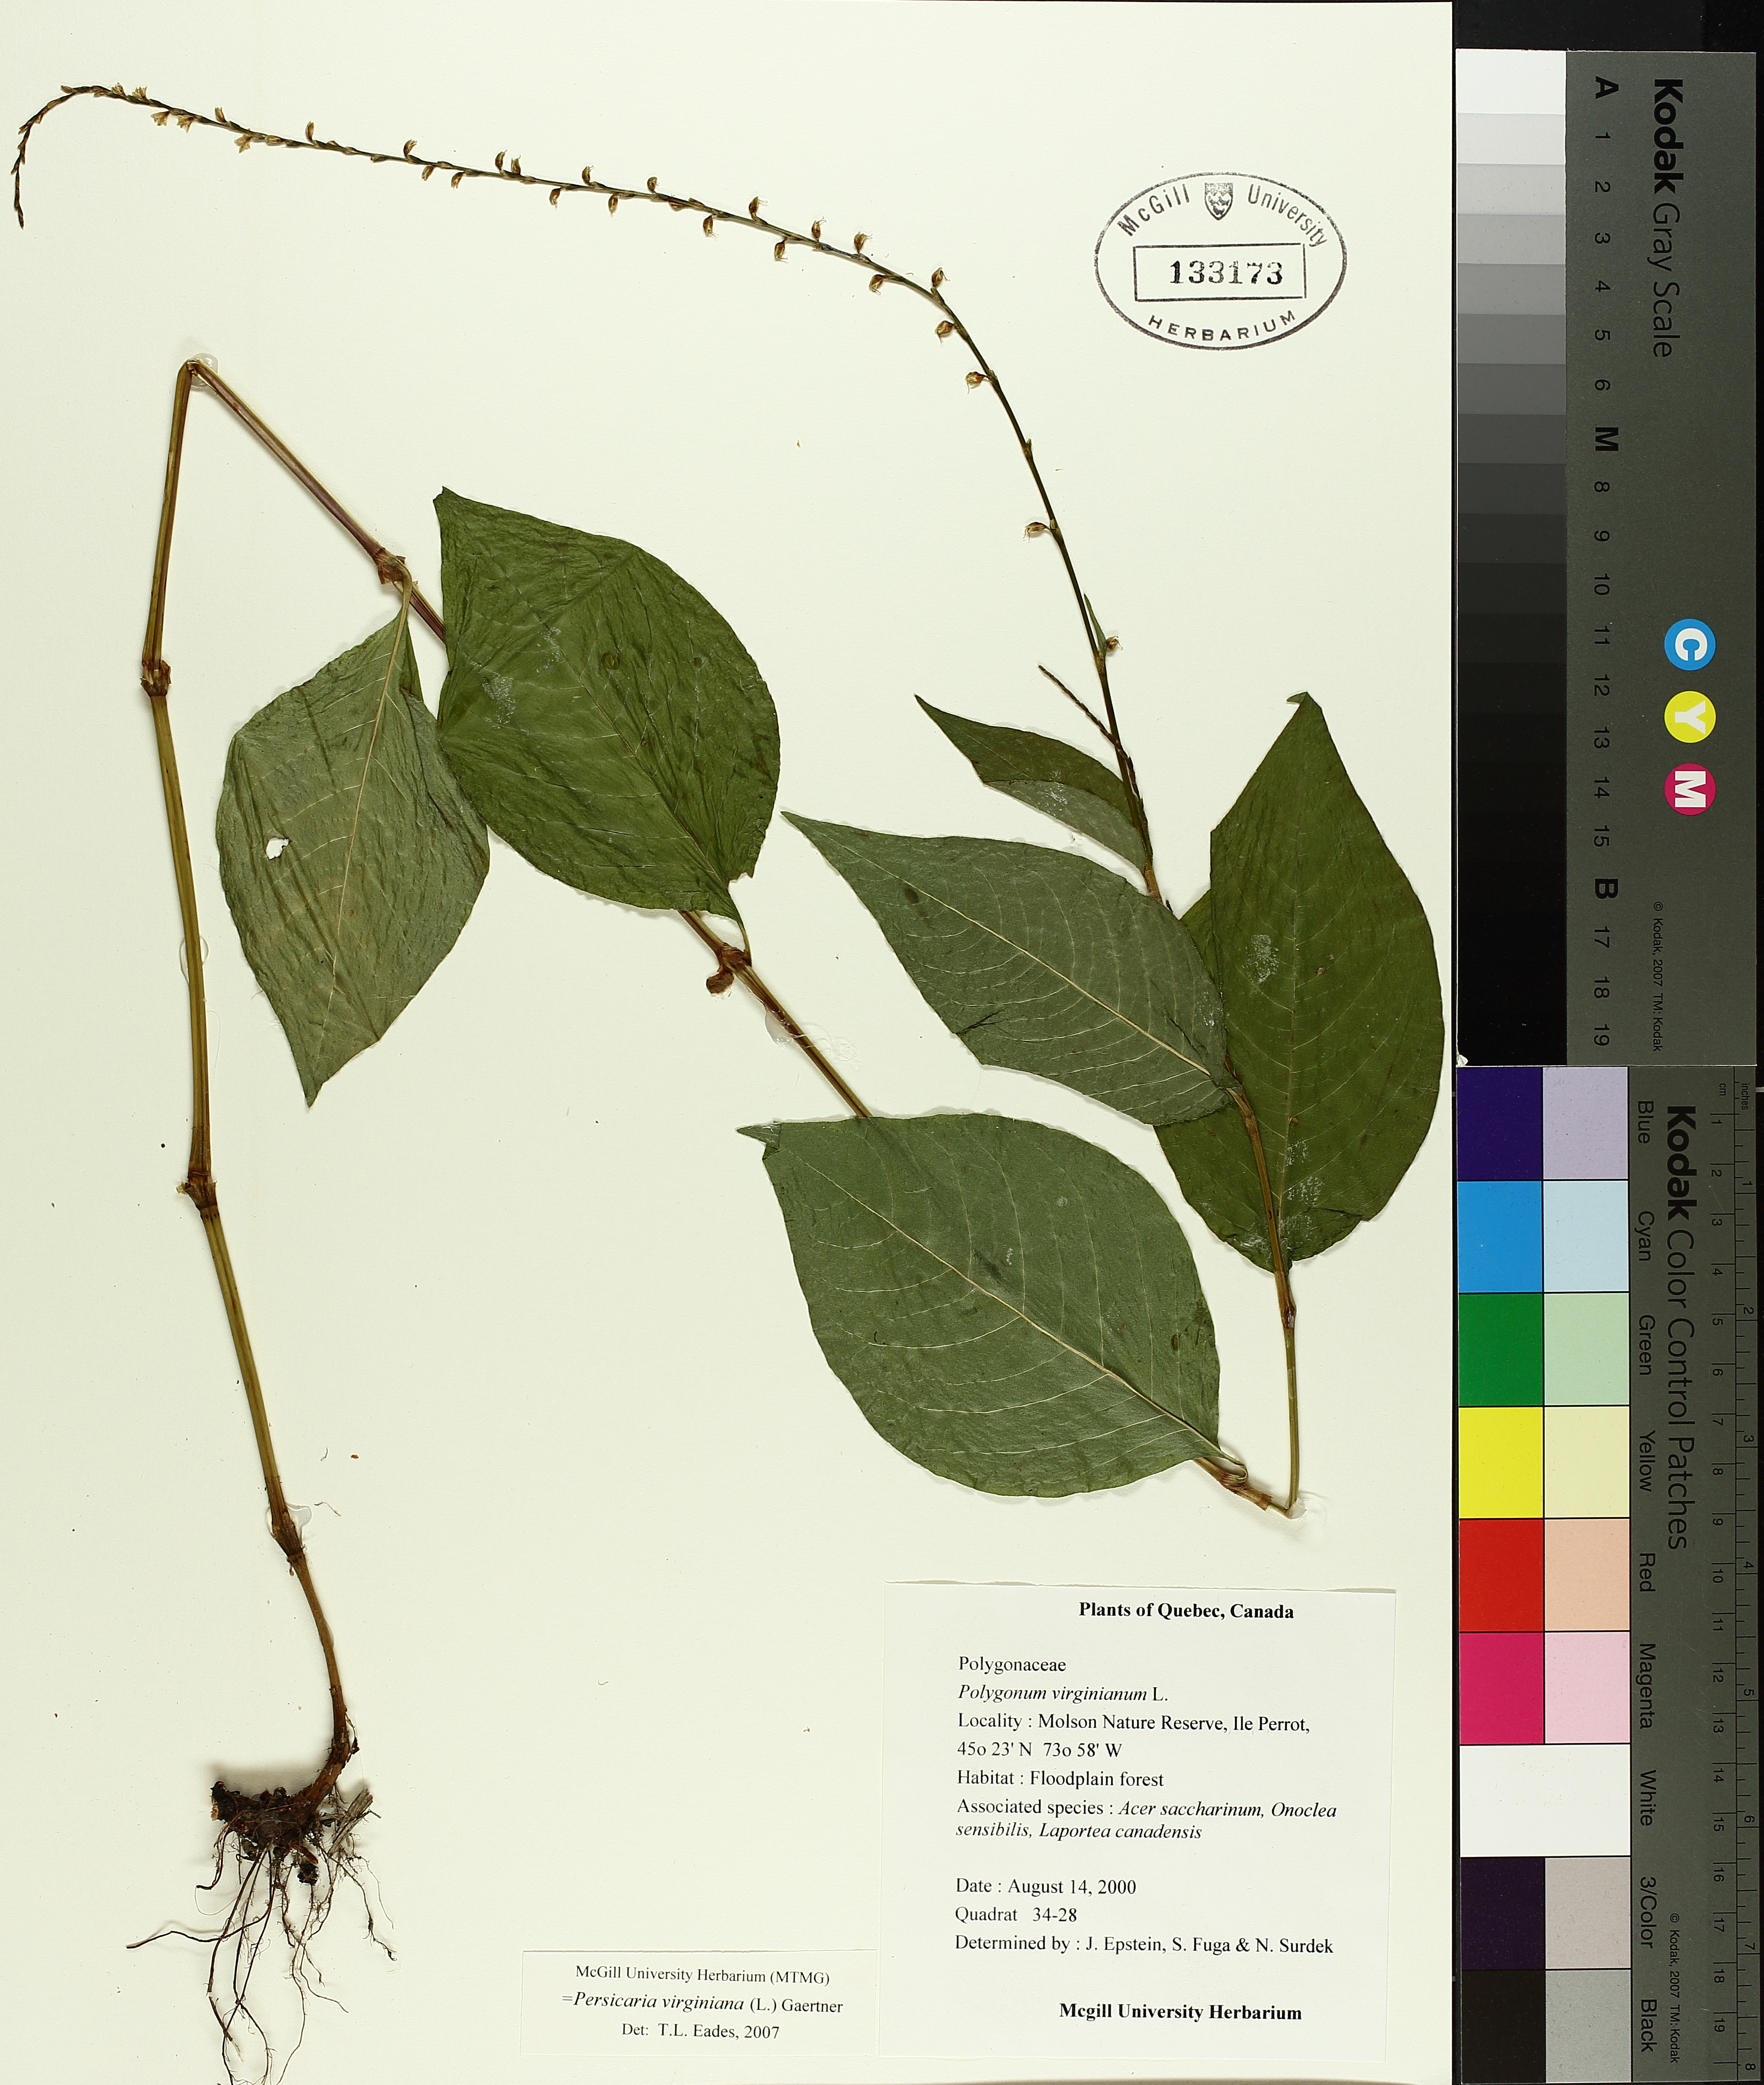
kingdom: Plantae
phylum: Tracheophyta
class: Magnoliopsida
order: Caryophyllales
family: Polygonaceae
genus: Persicaria
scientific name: Persicaria virginiana
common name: Jumpseed
